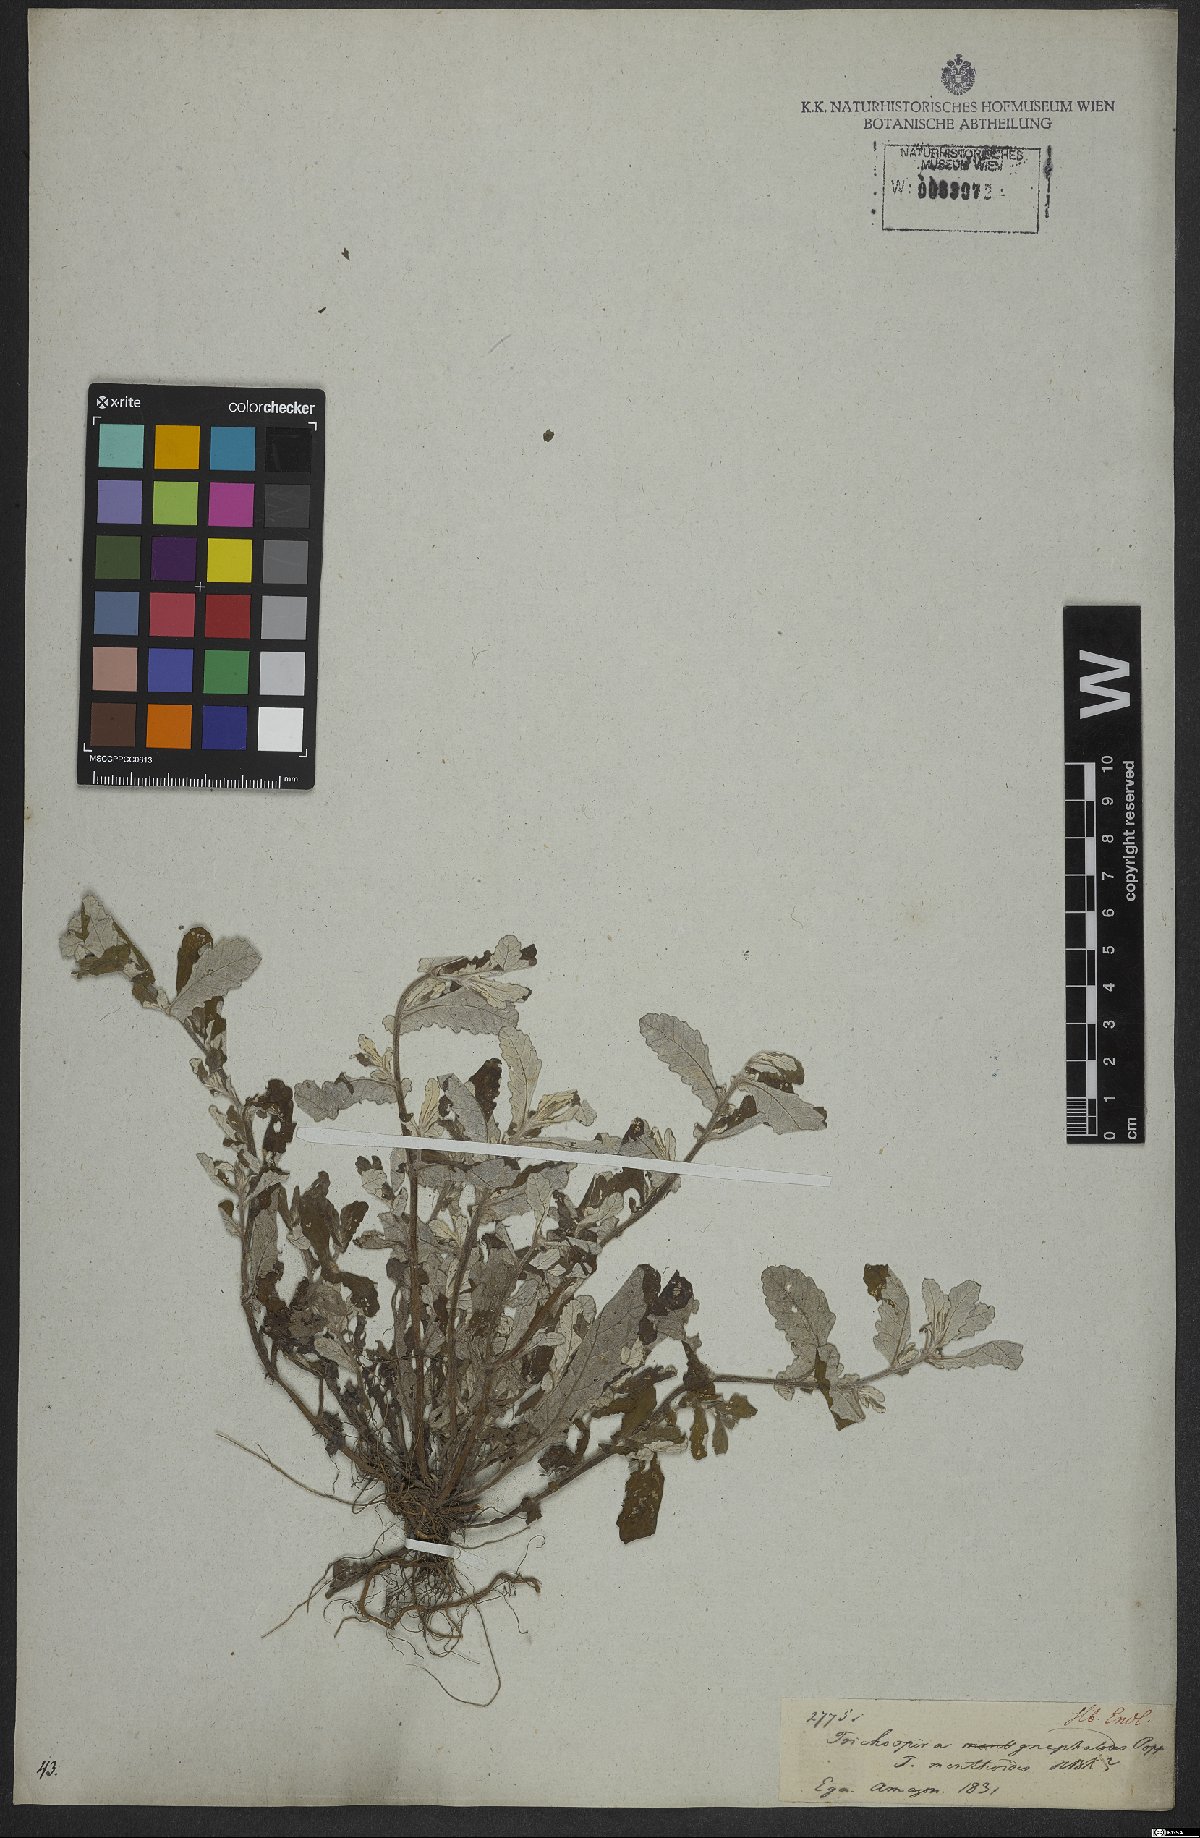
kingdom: Plantae
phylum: Tracheophyta
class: Magnoliopsida
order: Asterales
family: Asteraceae
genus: Trichospira
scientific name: Trichospira
